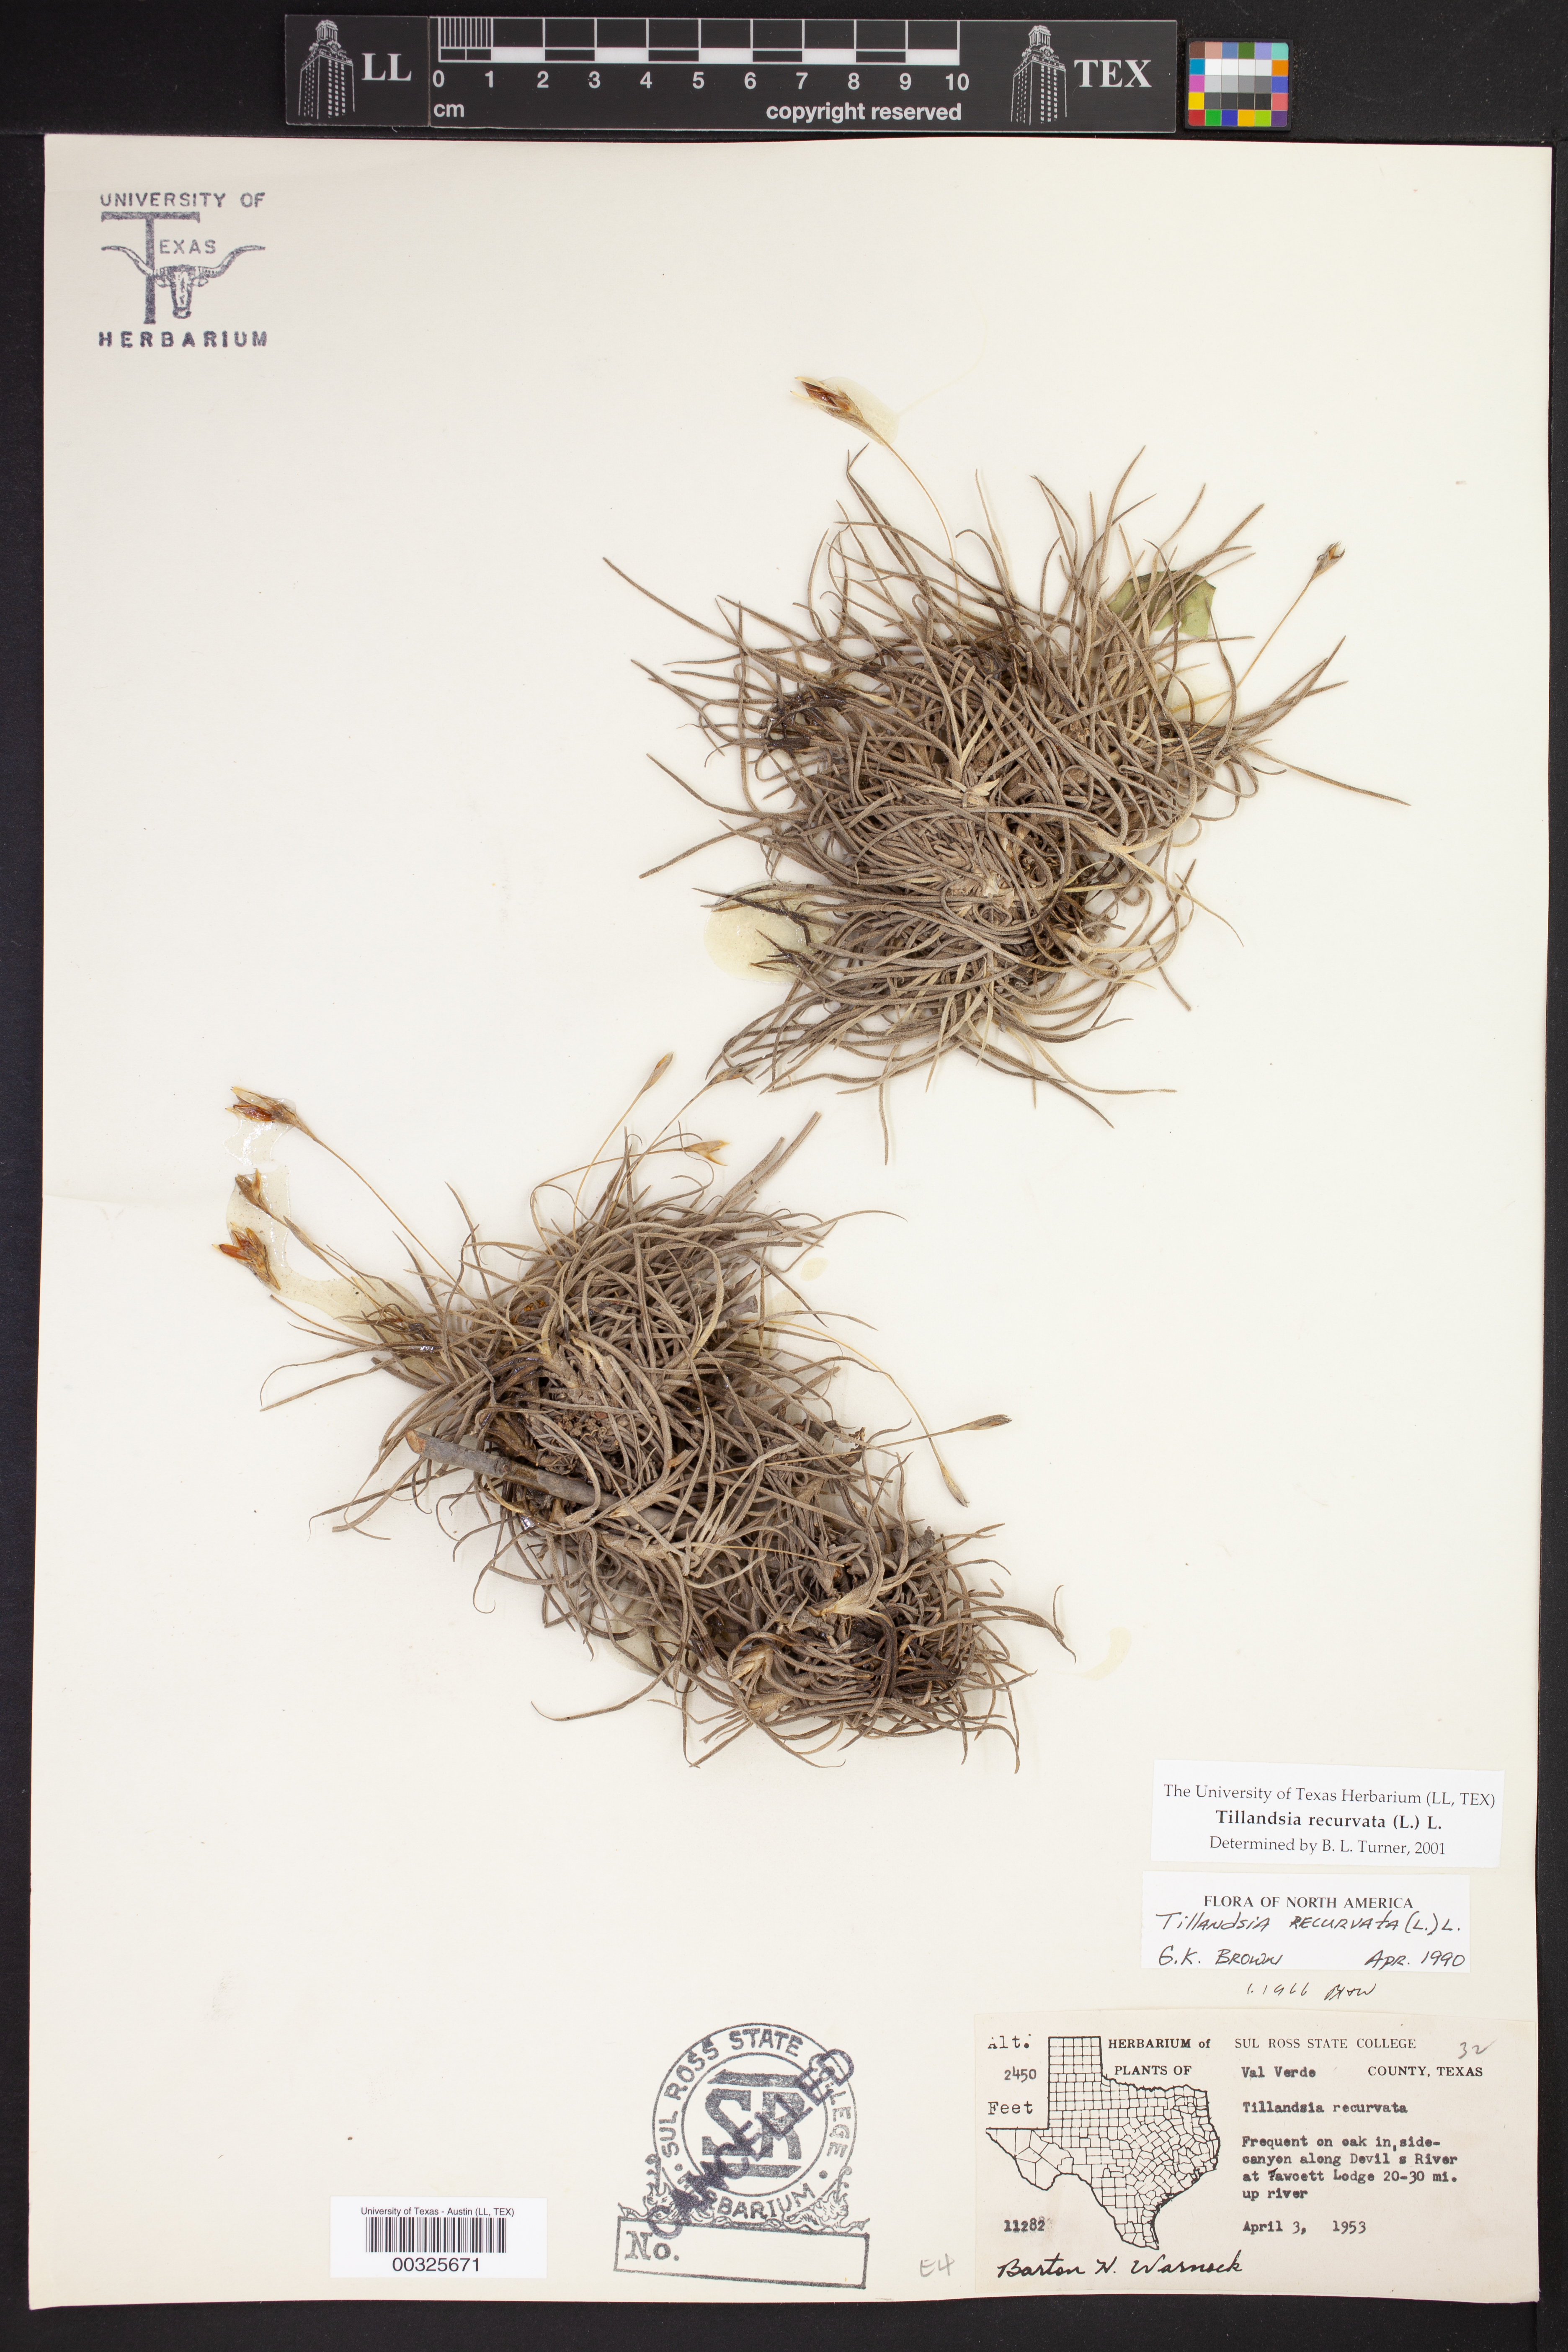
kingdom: Plantae
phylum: Tracheophyta
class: Liliopsida
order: Poales
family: Bromeliaceae
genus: Tillandsia
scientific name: Tillandsia recurvata
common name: Small ballmoss
